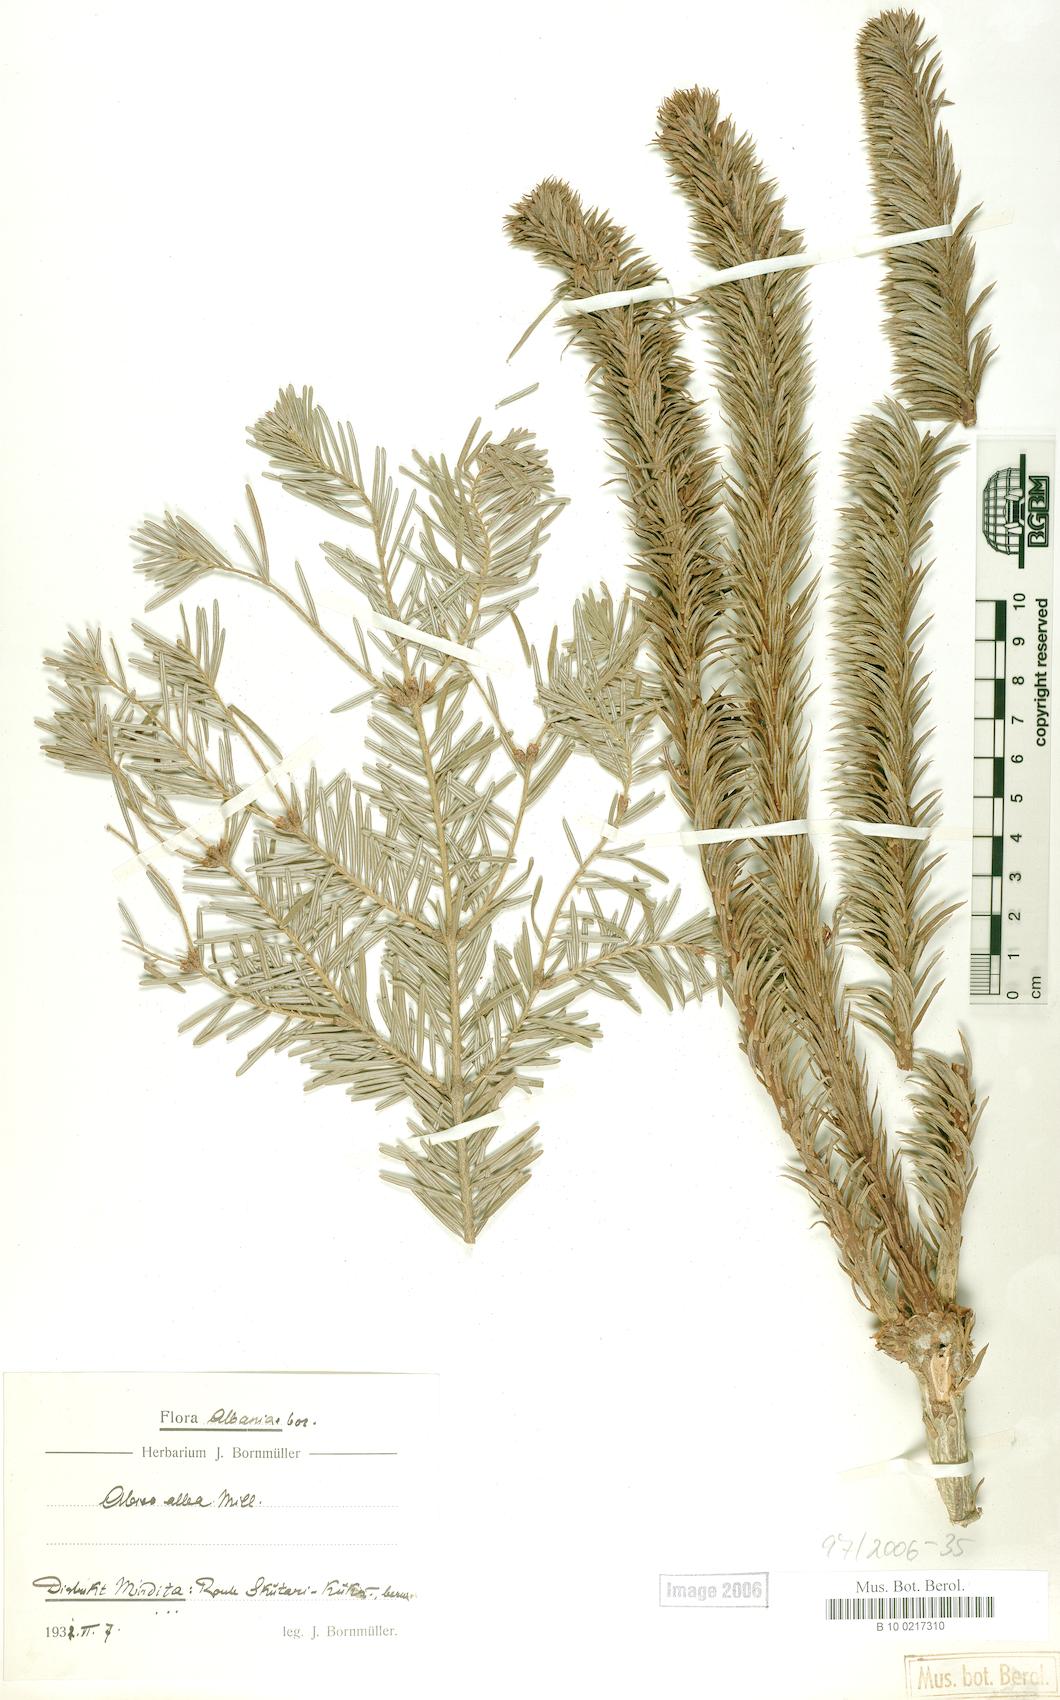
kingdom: Plantae
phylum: Tracheophyta
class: Pinopsida
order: Pinales
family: Pinaceae
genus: Abies
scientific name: Abies alba
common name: Silver fir
